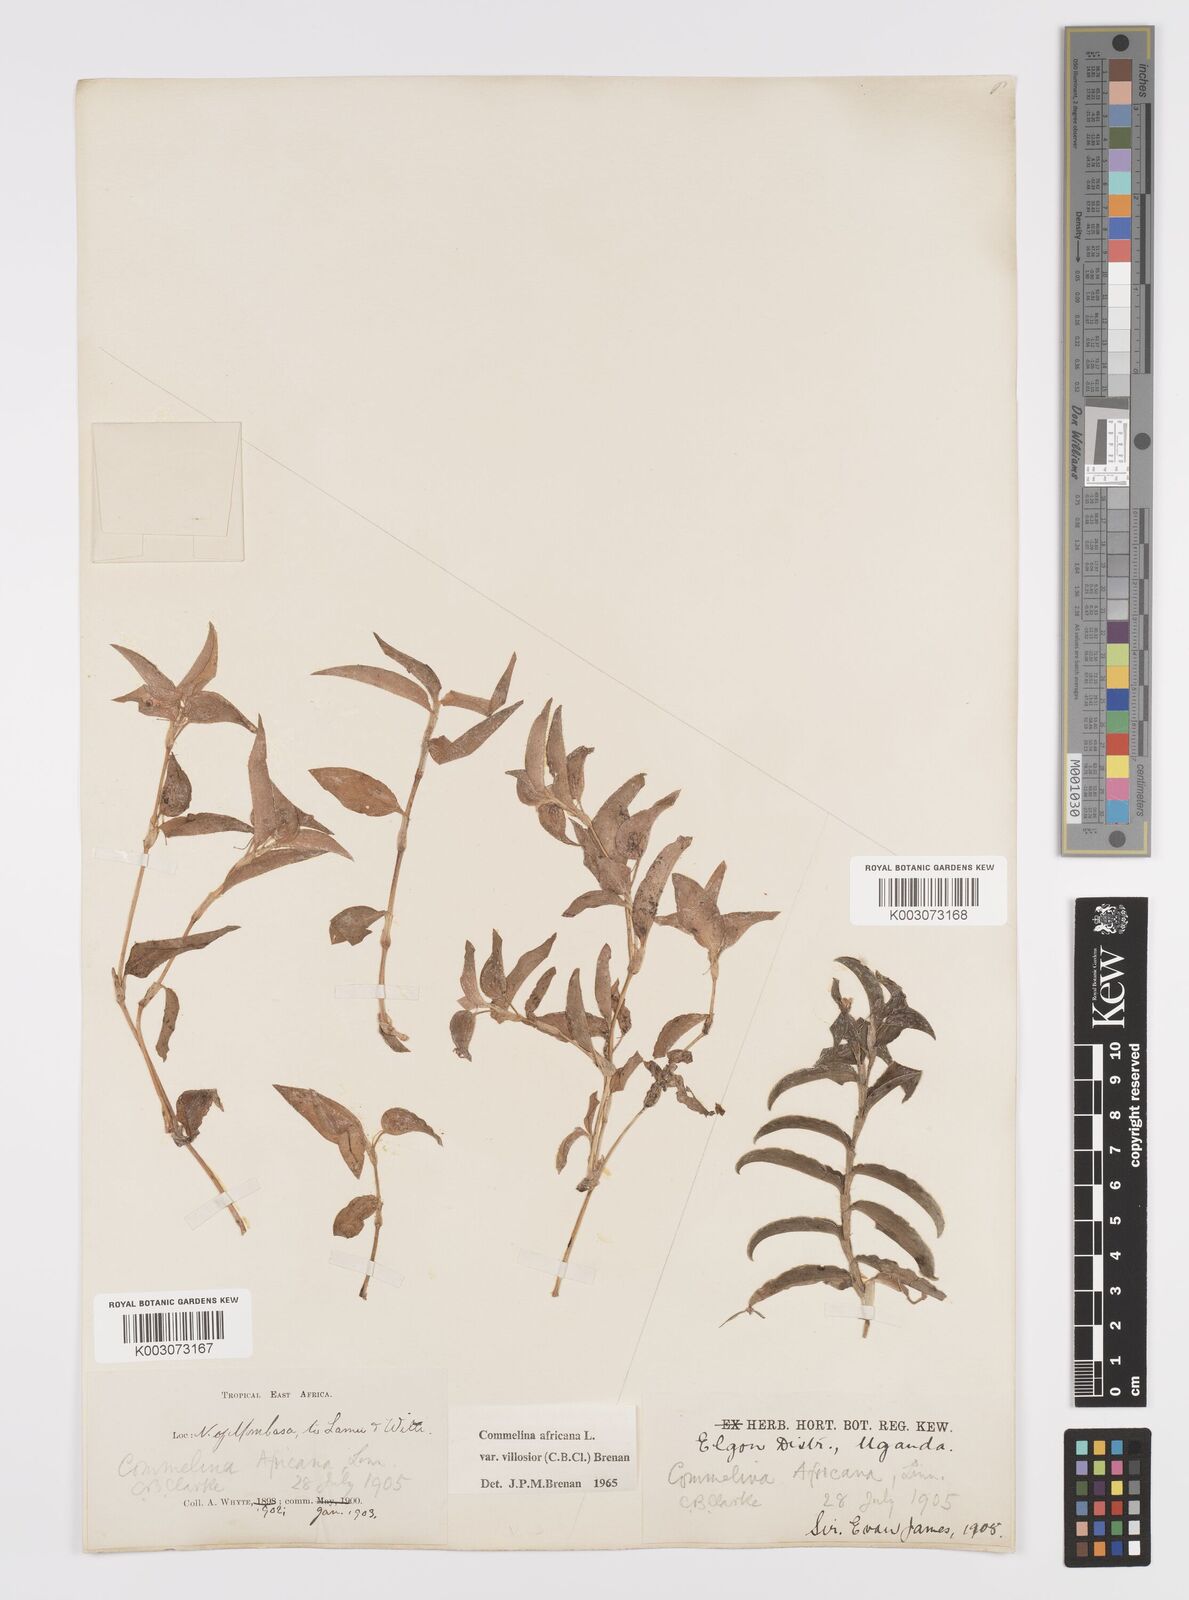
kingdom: Plantae
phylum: Tracheophyta
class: Liliopsida
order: Commelinales
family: Commelinaceae
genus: Commelina
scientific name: Commelina africana
